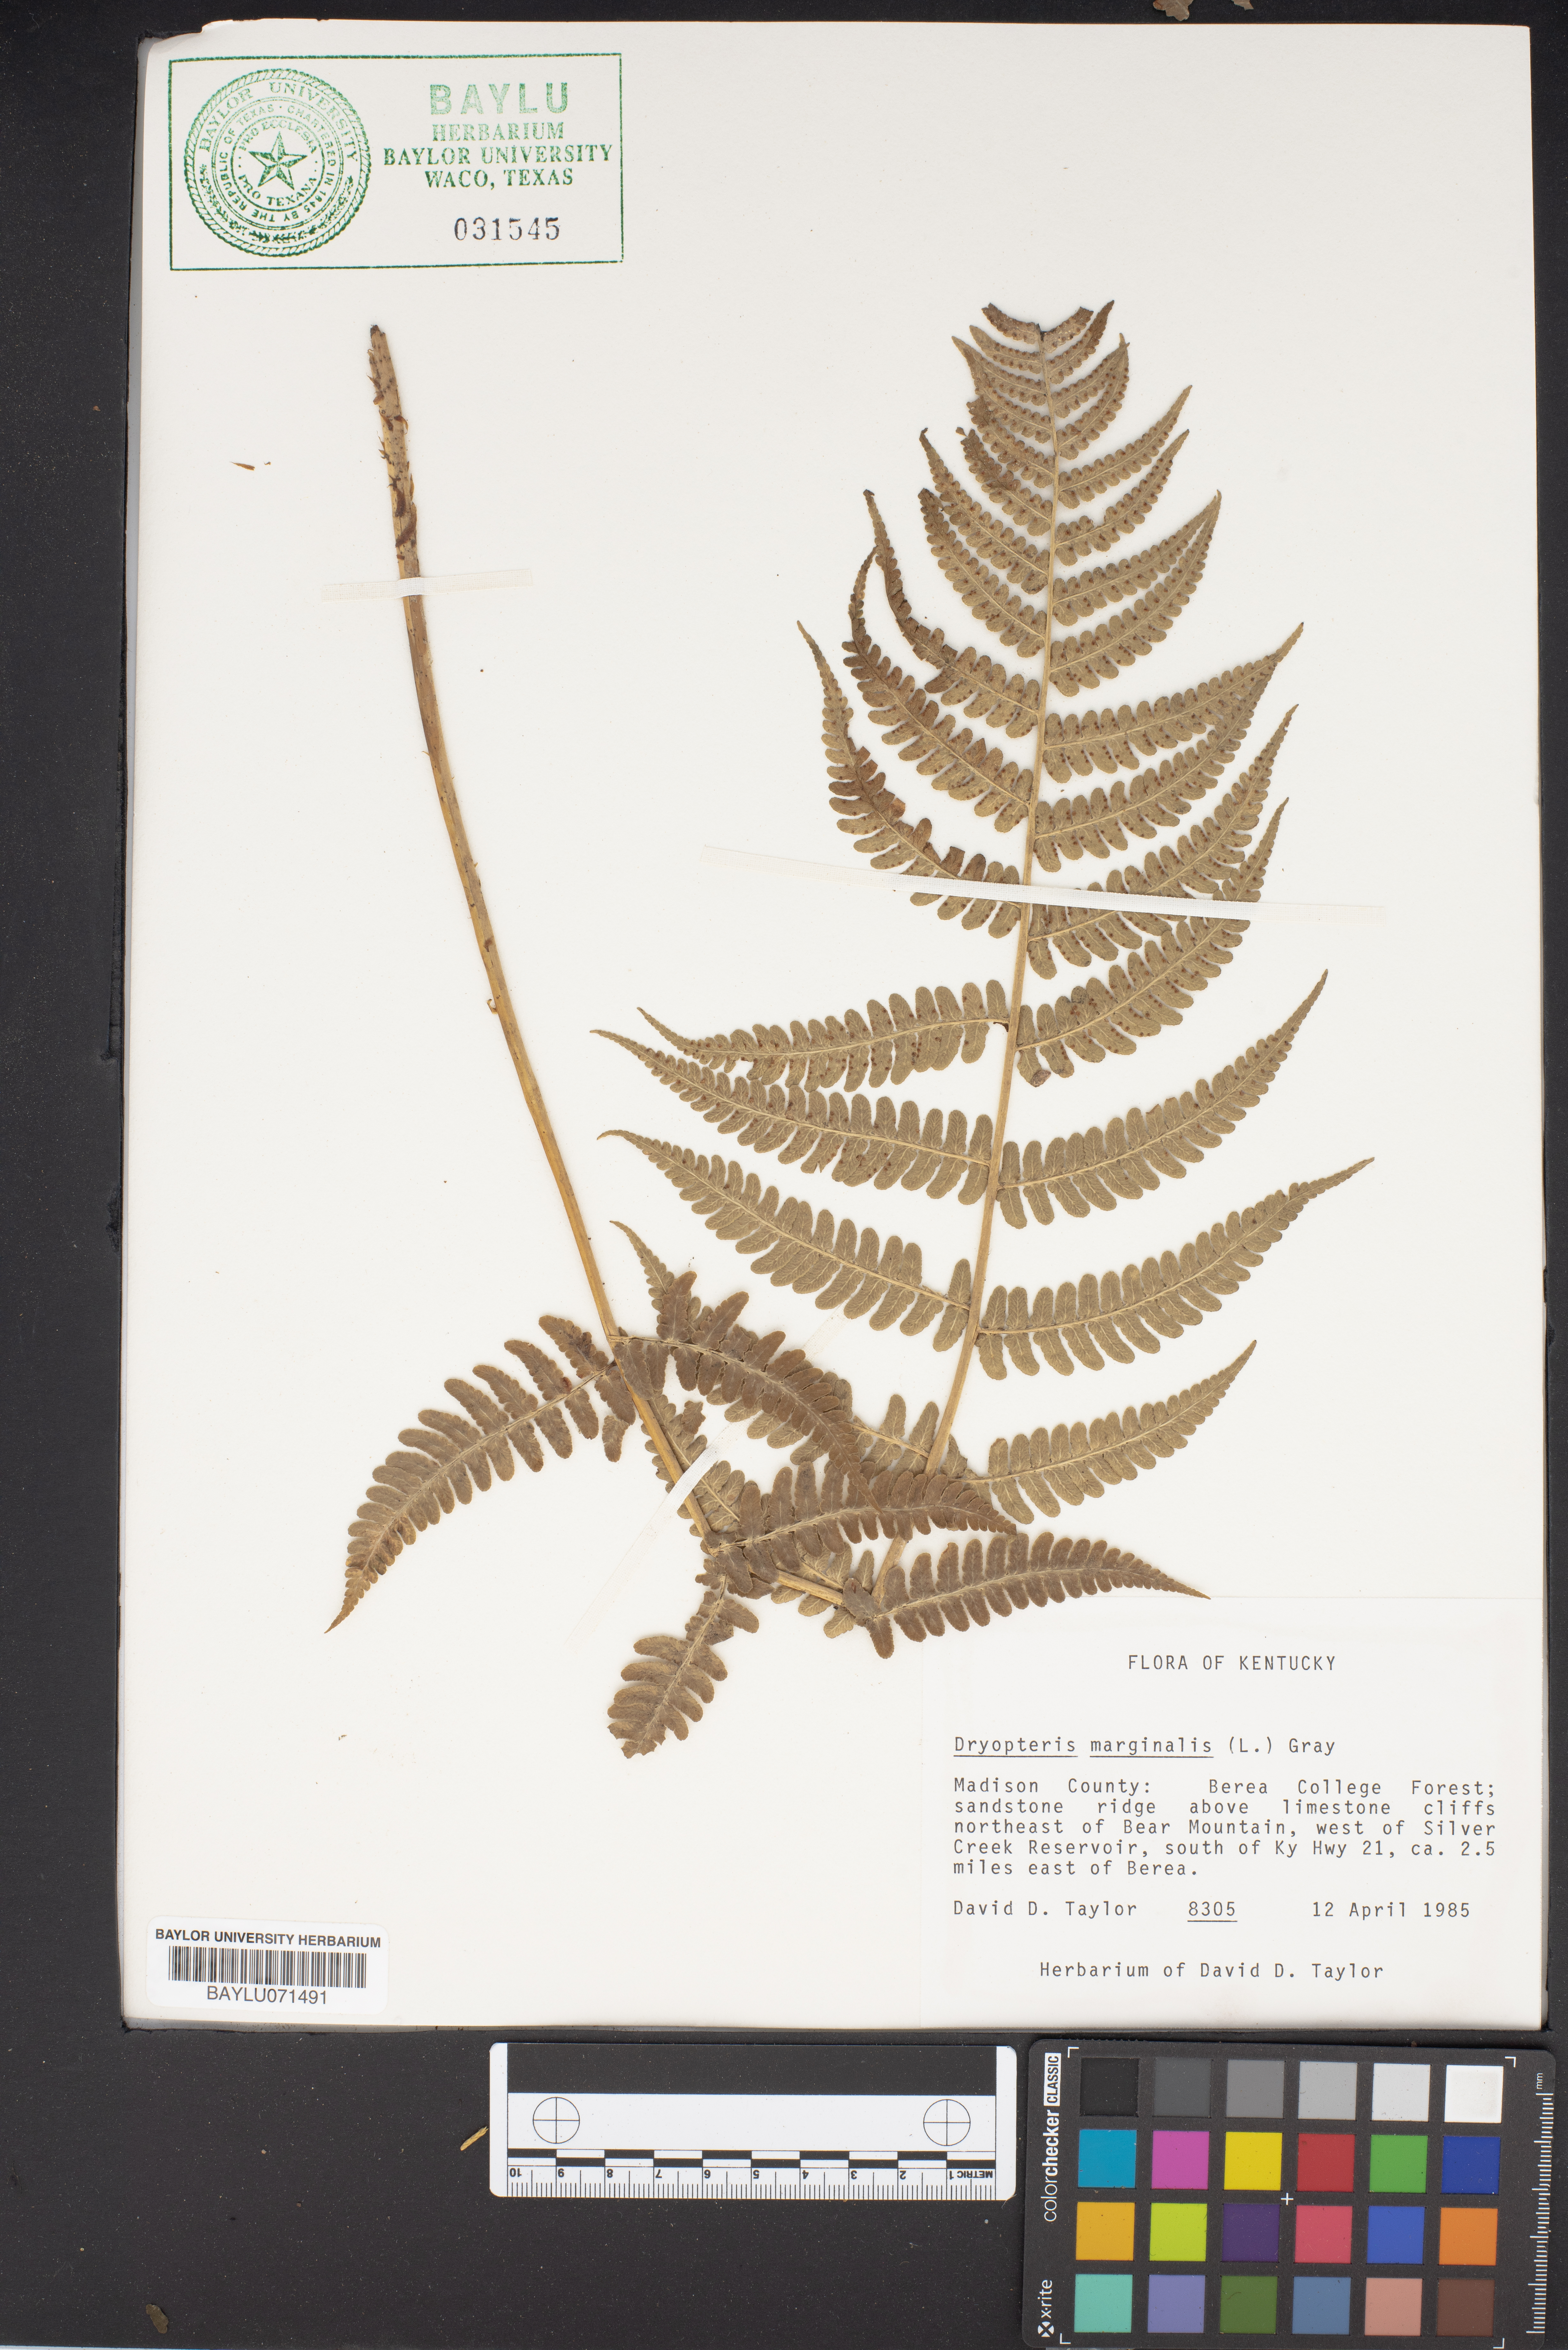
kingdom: Plantae
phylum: Tracheophyta
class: Polypodiopsida
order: Polypodiales
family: Dryopteridaceae
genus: Dryopteris
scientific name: Dryopteris marginalis
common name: Marginal wood fern
